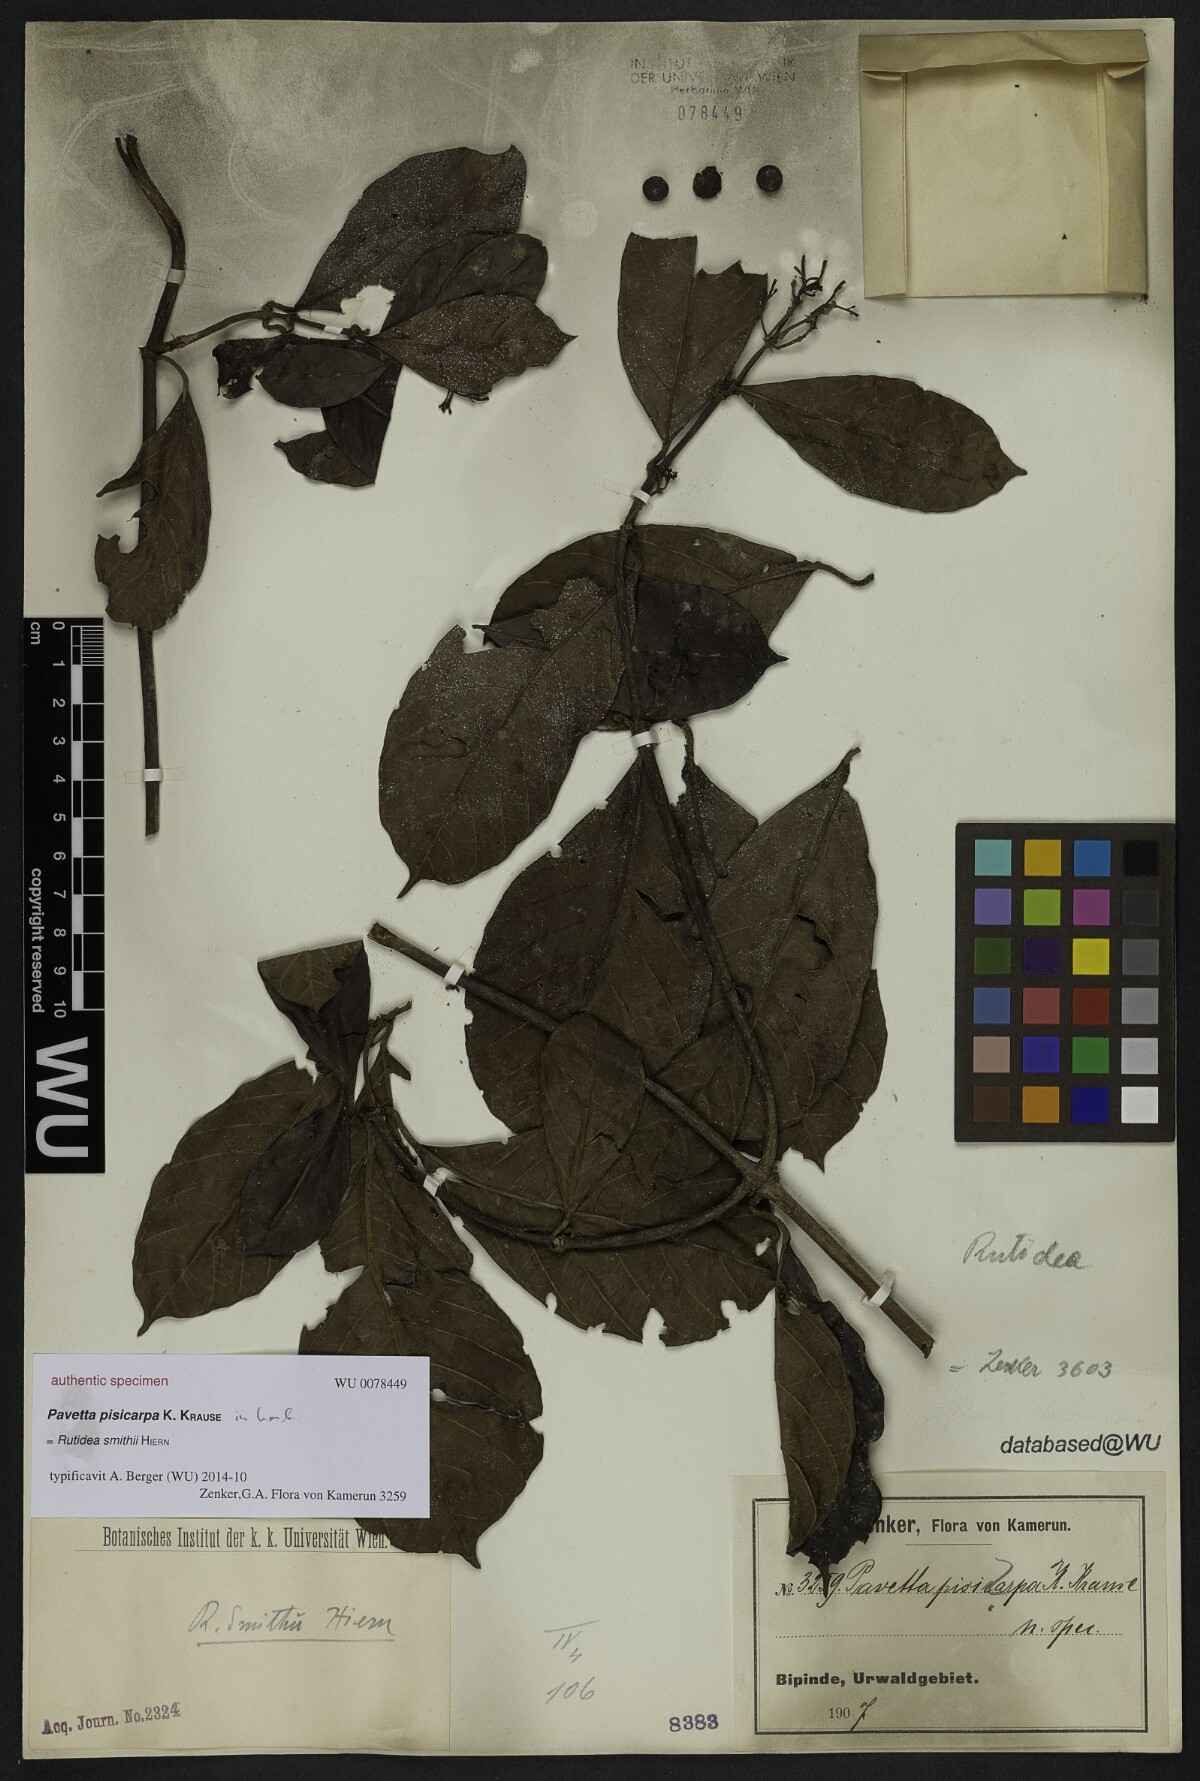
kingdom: Plantae
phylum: Tracheophyta
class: Magnoliopsida
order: Gentianales
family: Rubiaceae
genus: Pavetta
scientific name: Pavetta
